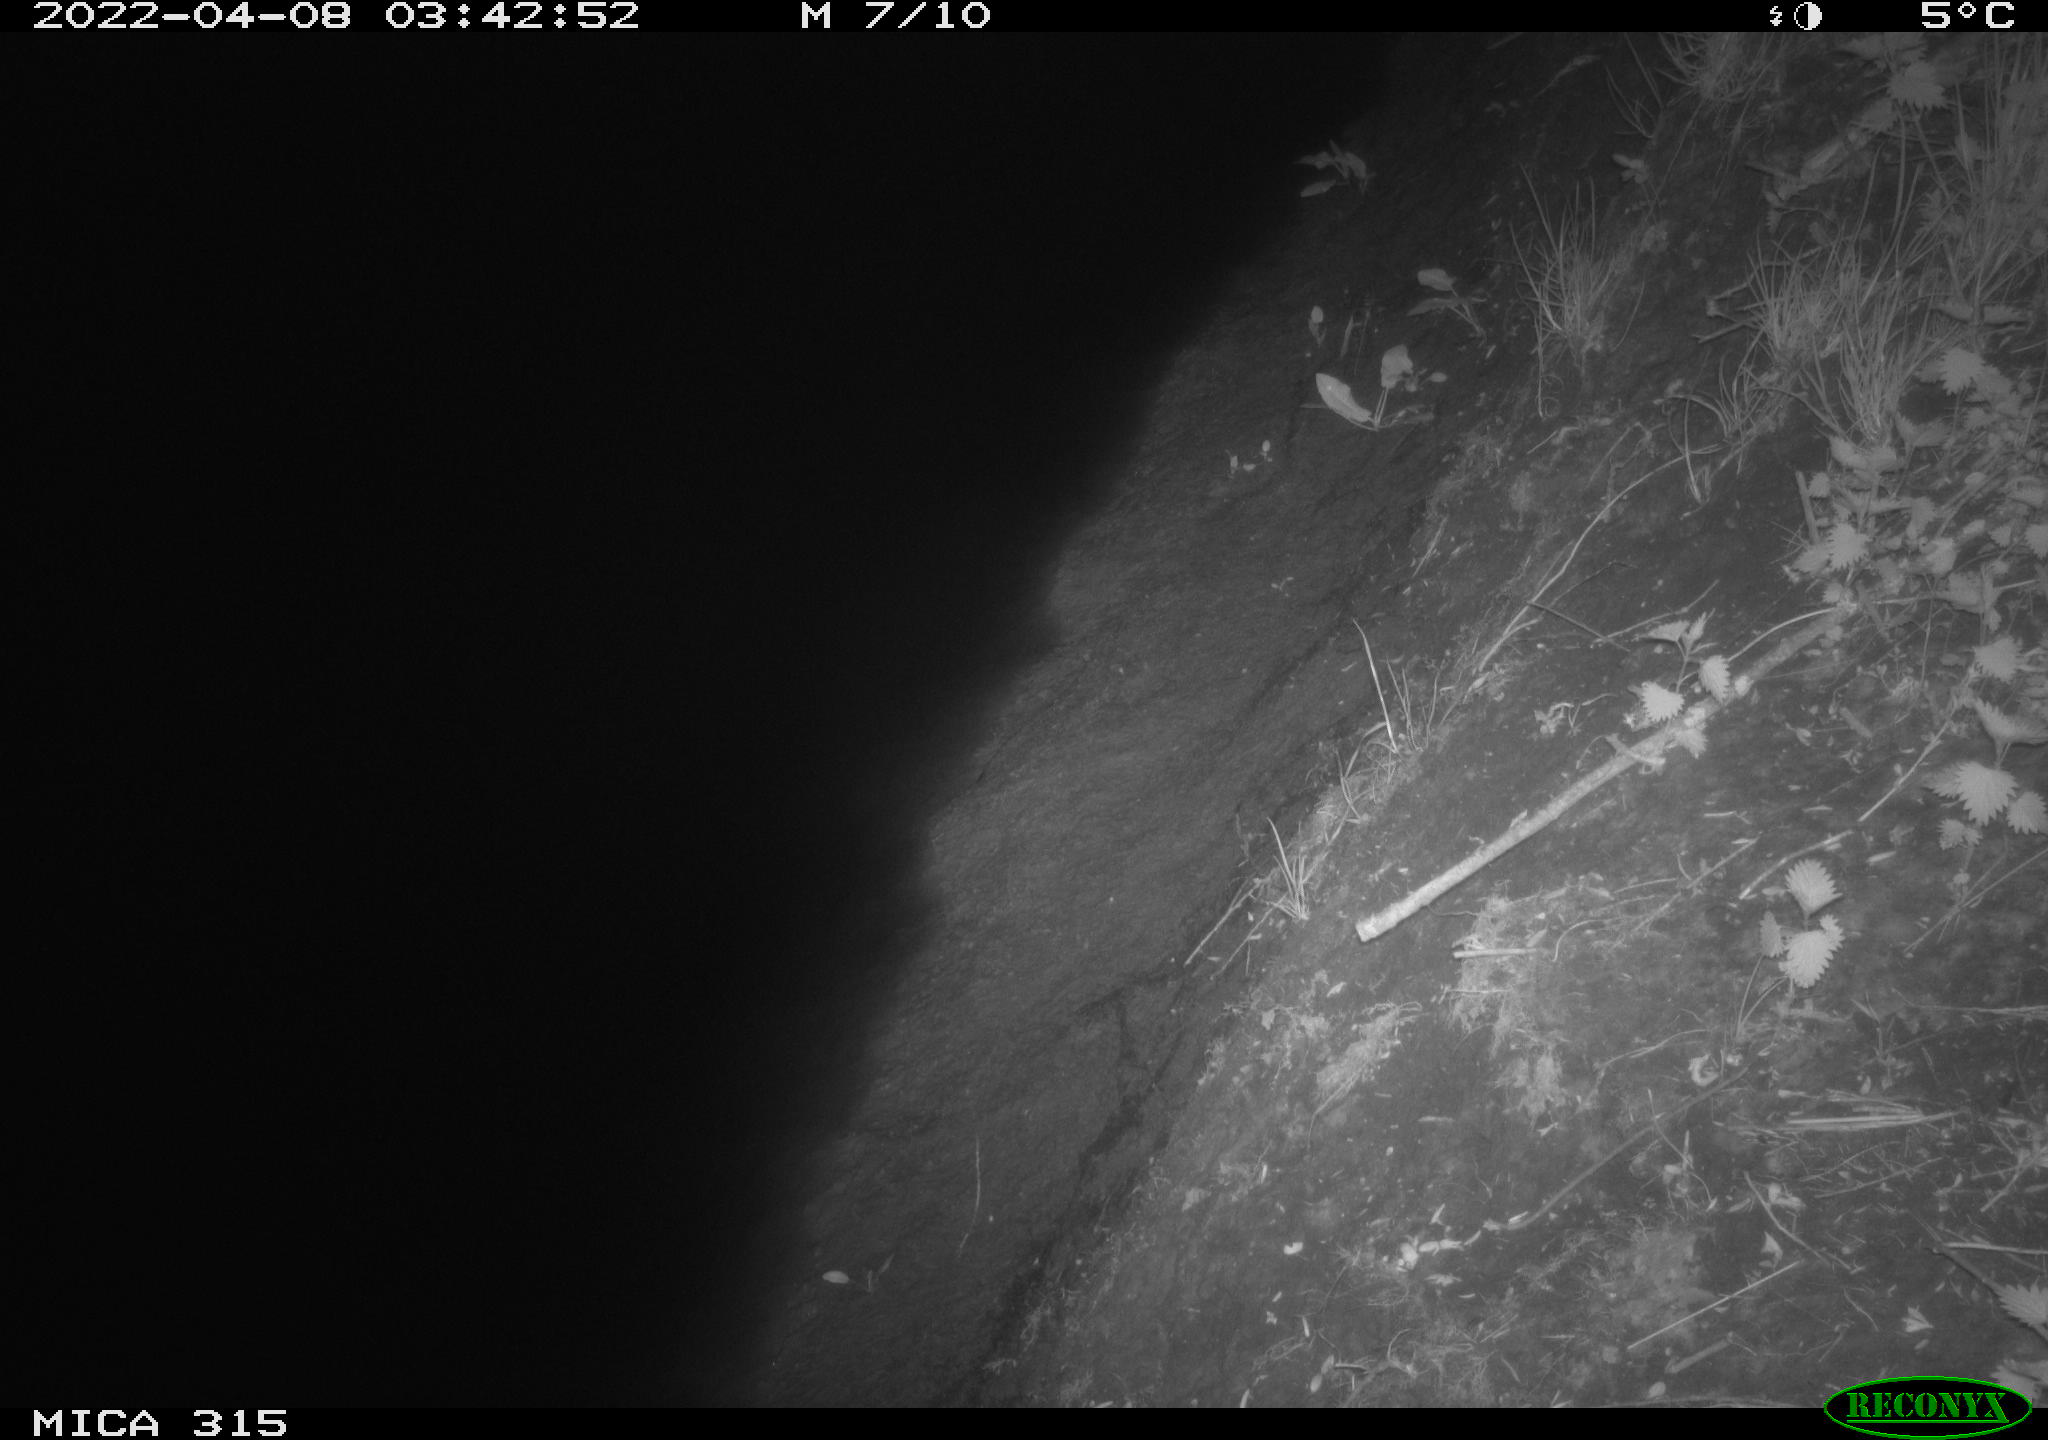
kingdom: Animalia
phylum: Chordata
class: Mammalia
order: Rodentia
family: Muridae
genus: Rattus
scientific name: Rattus norvegicus
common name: Brown rat
